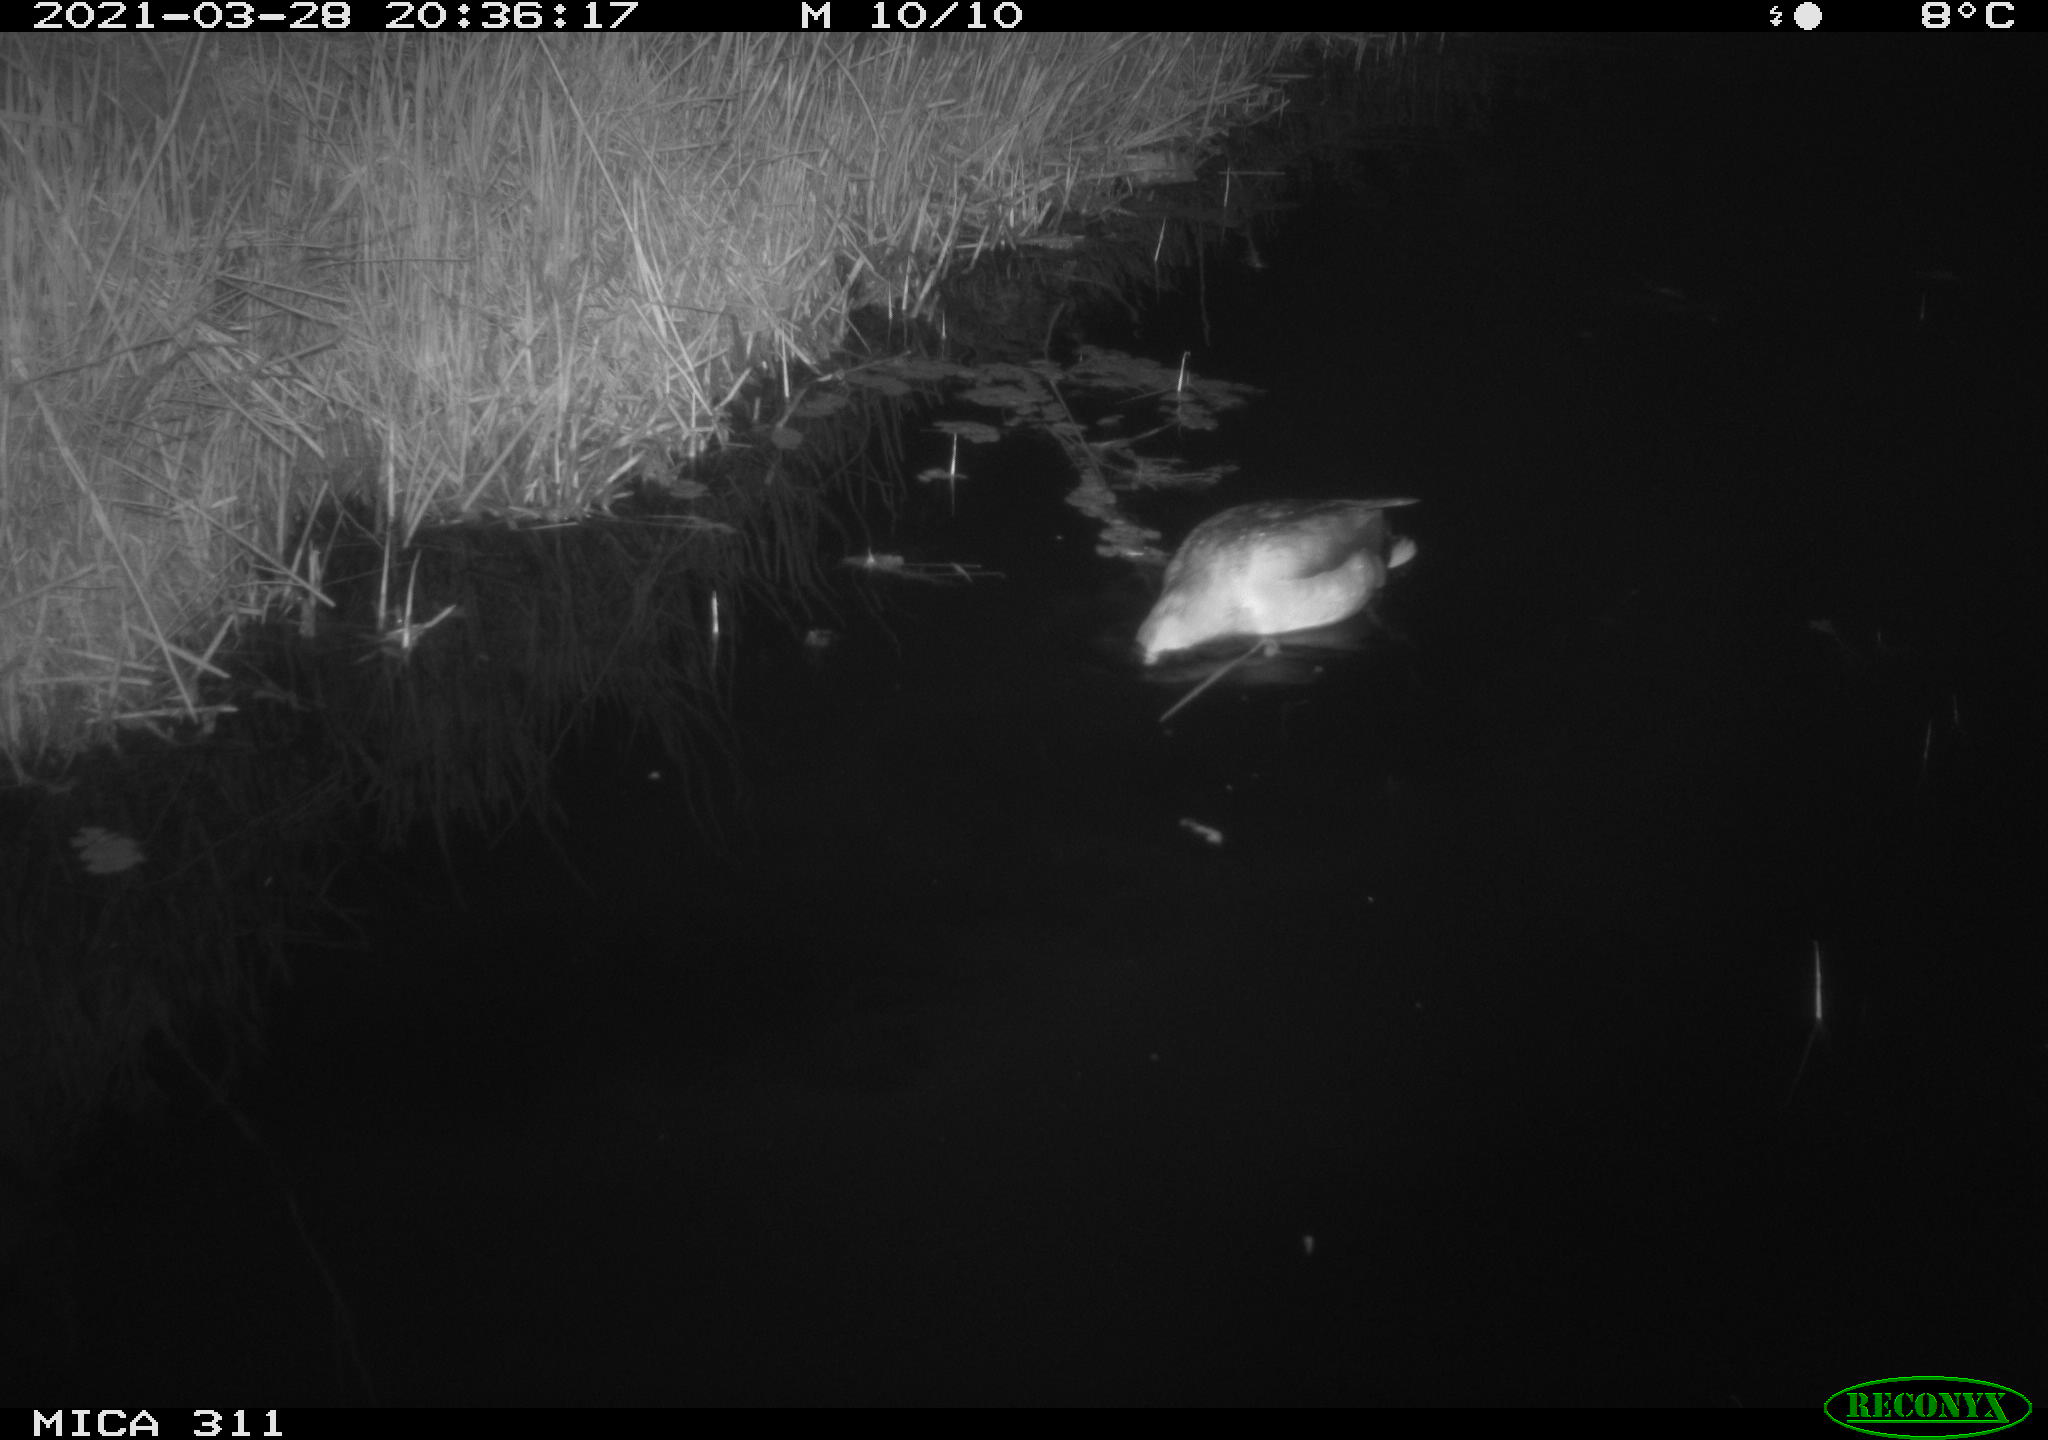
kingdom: Animalia
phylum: Chordata
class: Aves
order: Anseriformes
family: Anatidae
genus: Anas
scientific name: Anas platyrhynchos
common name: Mallard
